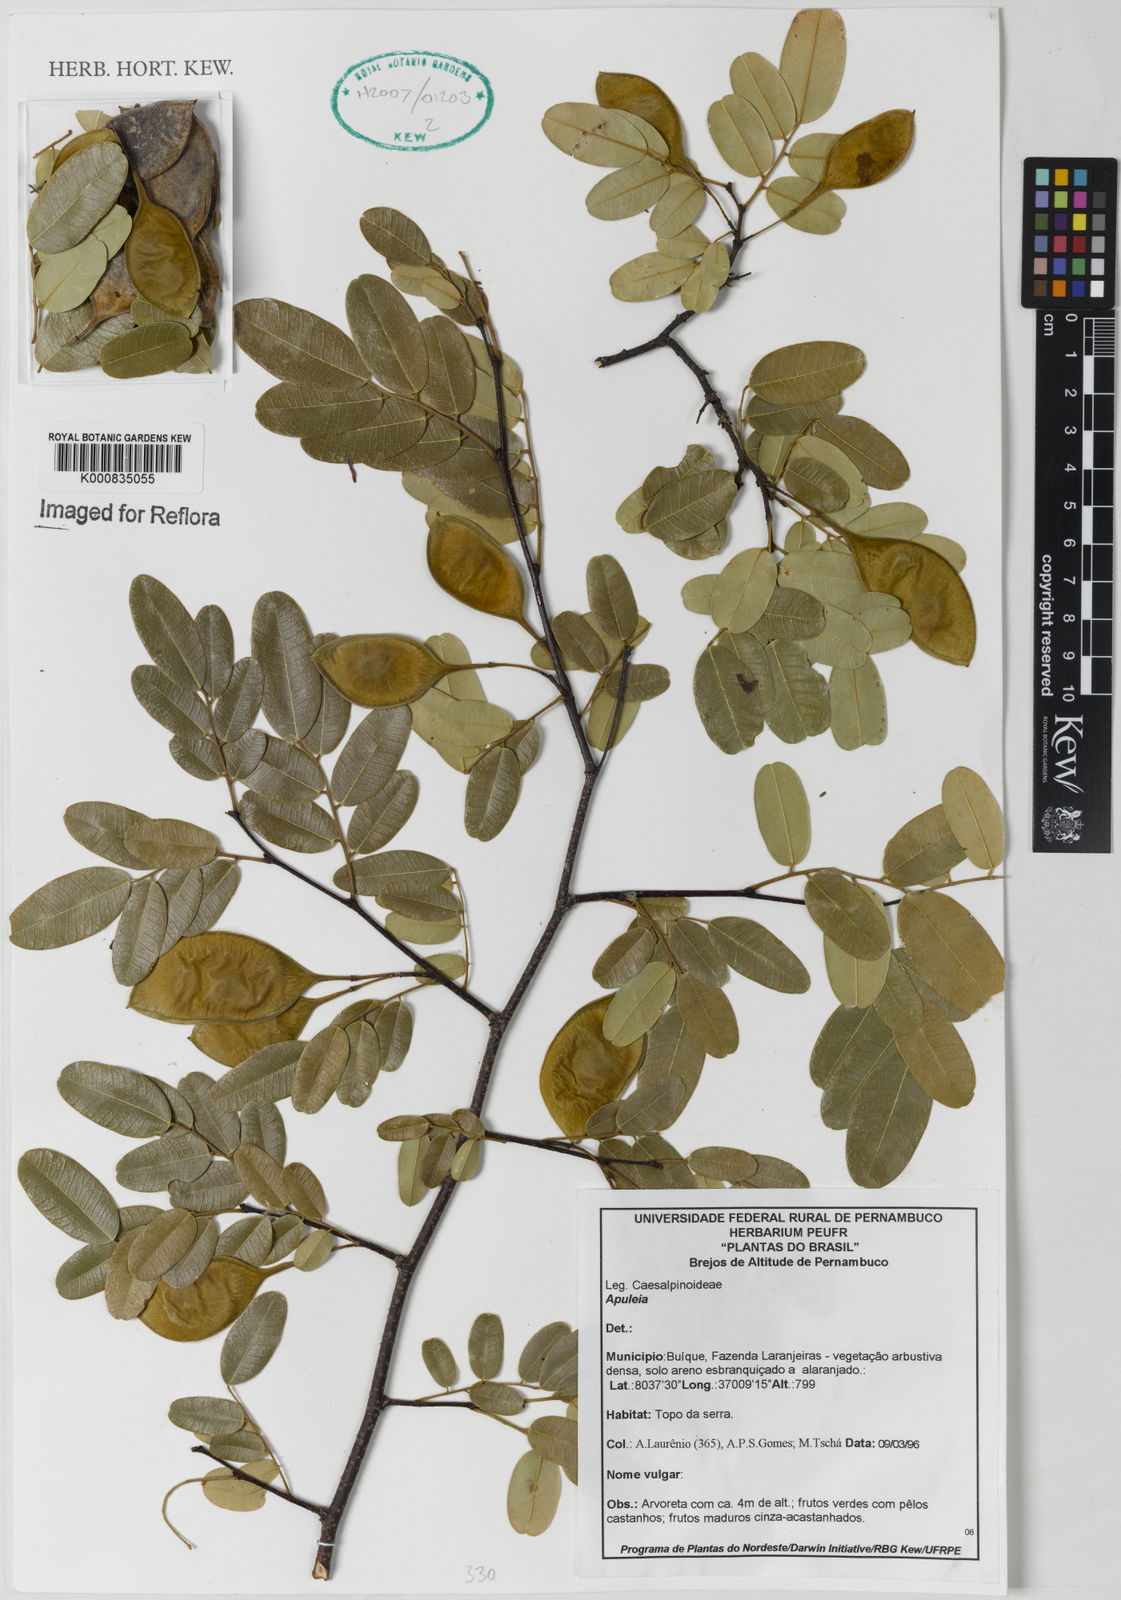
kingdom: Plantae
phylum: Tracheophyta
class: Magnoliopsida
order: Asterales
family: Asteraceae
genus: Berkheya
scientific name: Berkheya
